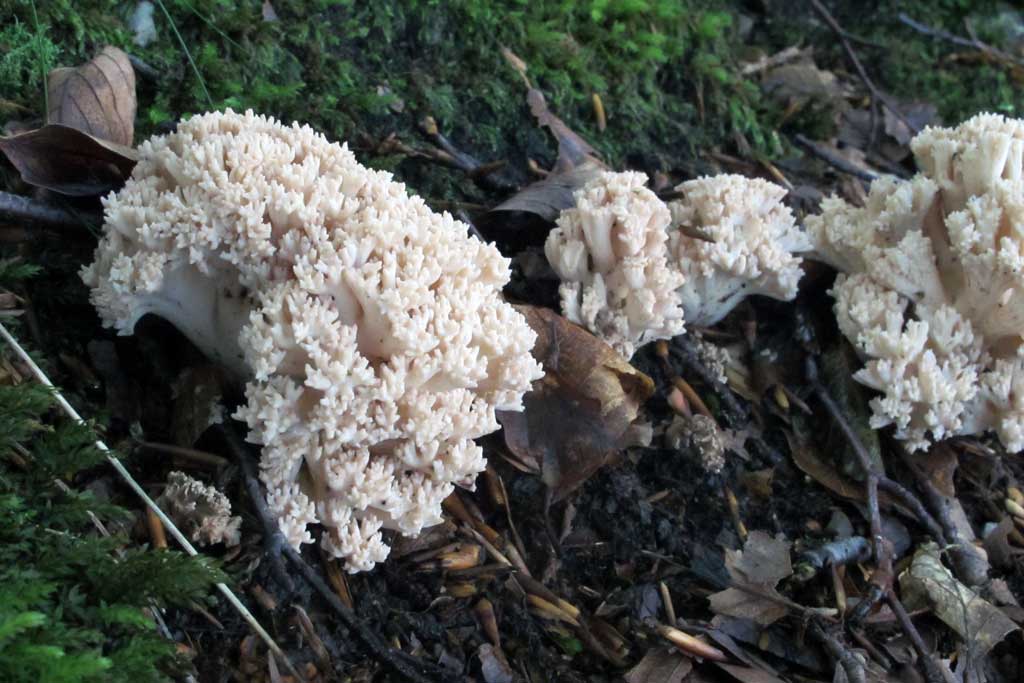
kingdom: Fungi
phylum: Basidiomycota
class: Agaricomycetes
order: Gomphales
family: Gomphaceae
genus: Ramaria
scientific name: Ramaria
